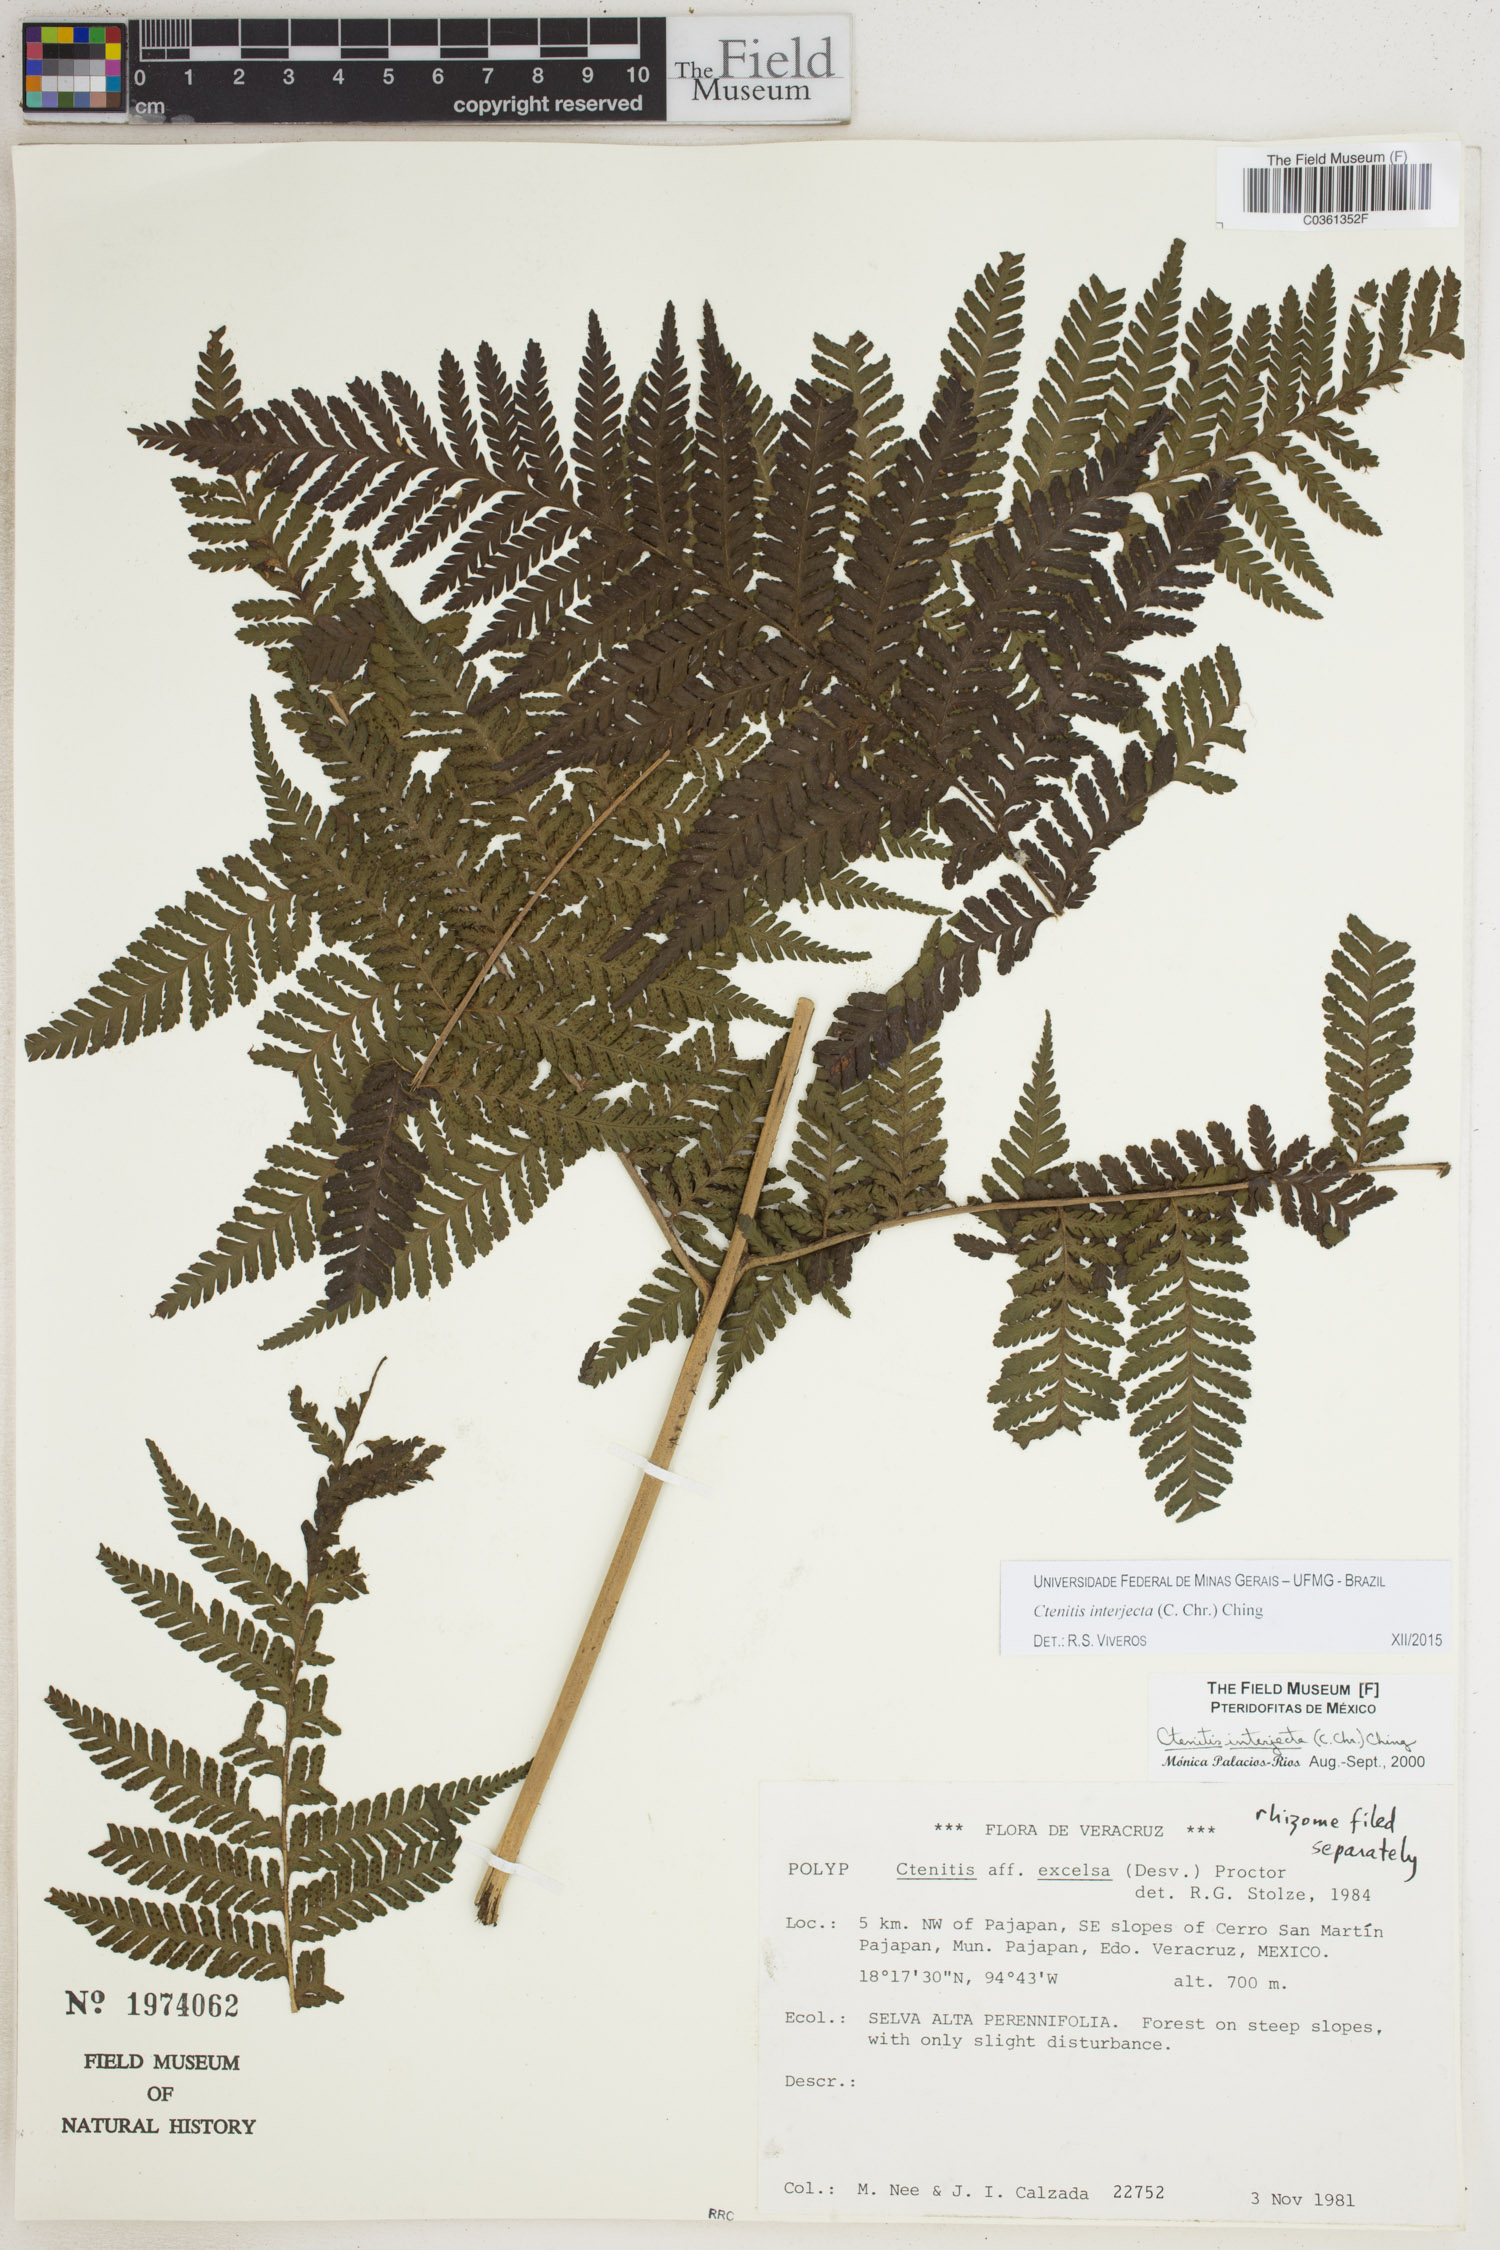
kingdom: Plantae
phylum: Tracheophyta
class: Polypodiopsida
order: Polypodiales
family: Dryopteridaceae
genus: Ctenitis
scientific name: Ctenitis interjecta
